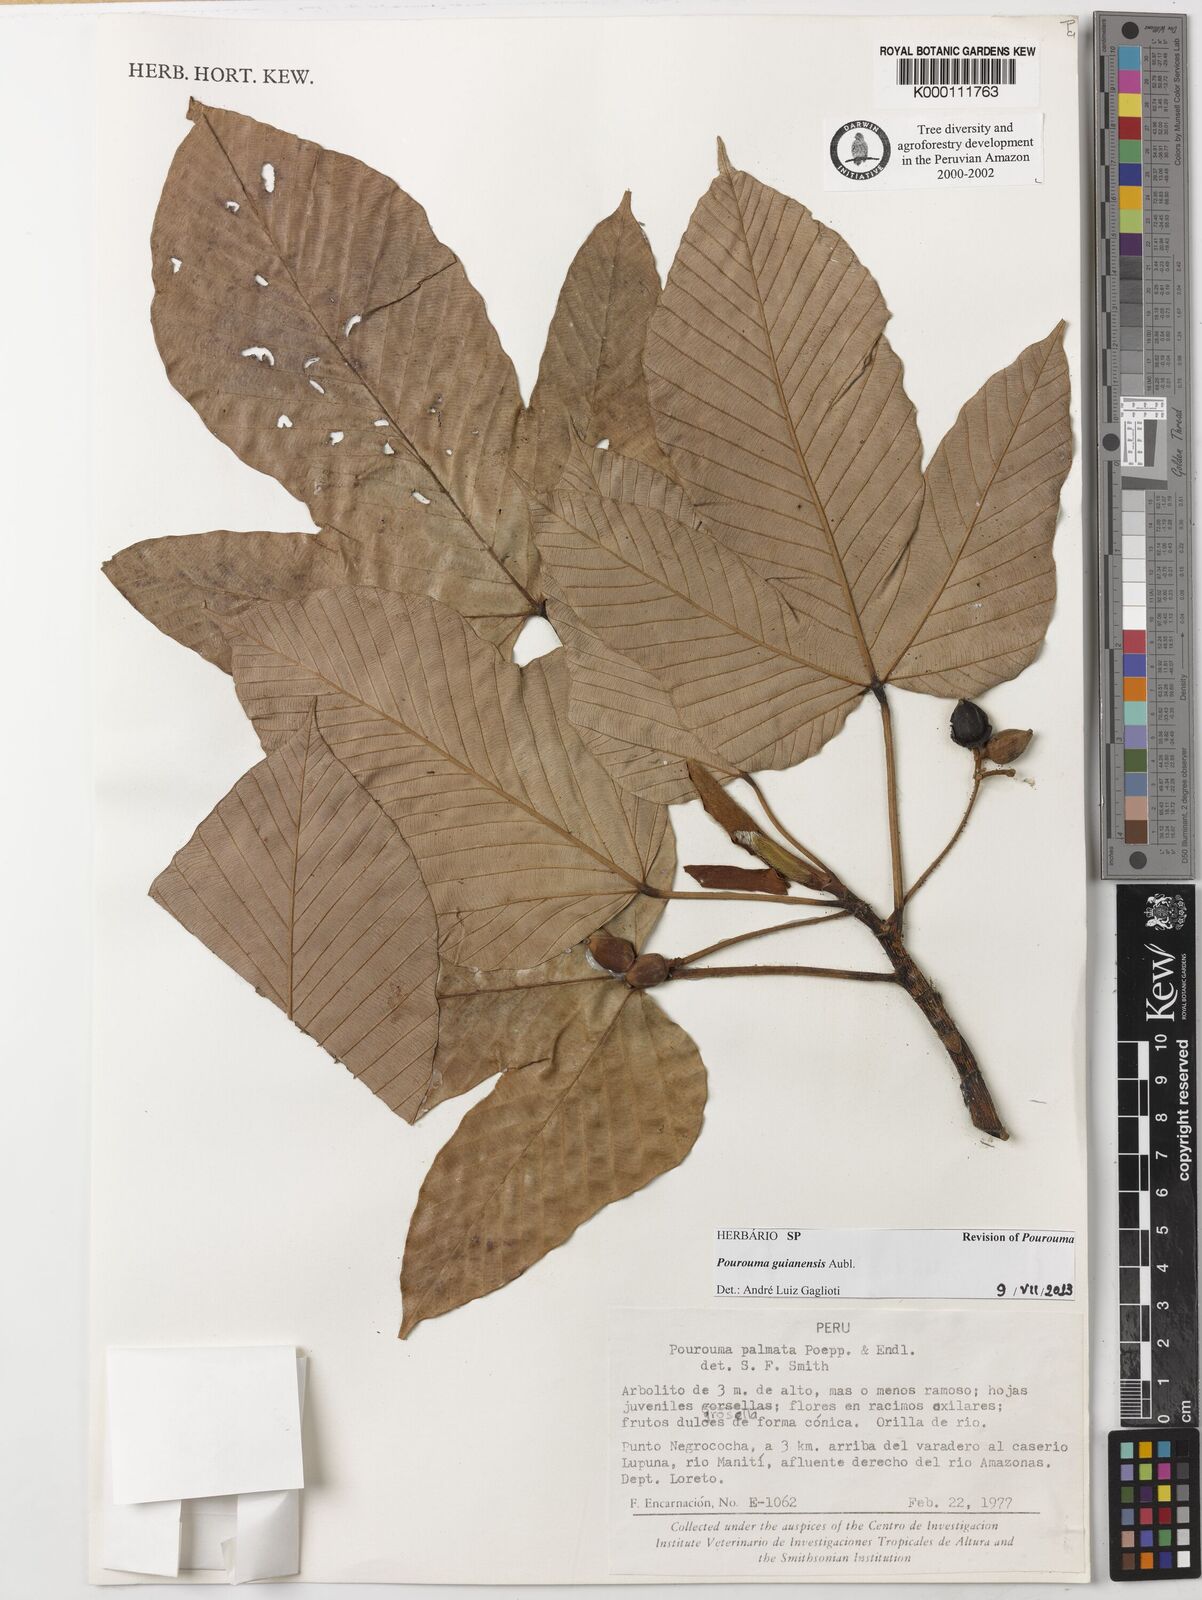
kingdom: Plantae
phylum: Tracheophyta
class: Magnoliopsida
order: Rosales
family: Urticaceae
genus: Pourouma
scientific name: Pourouma guianensis
